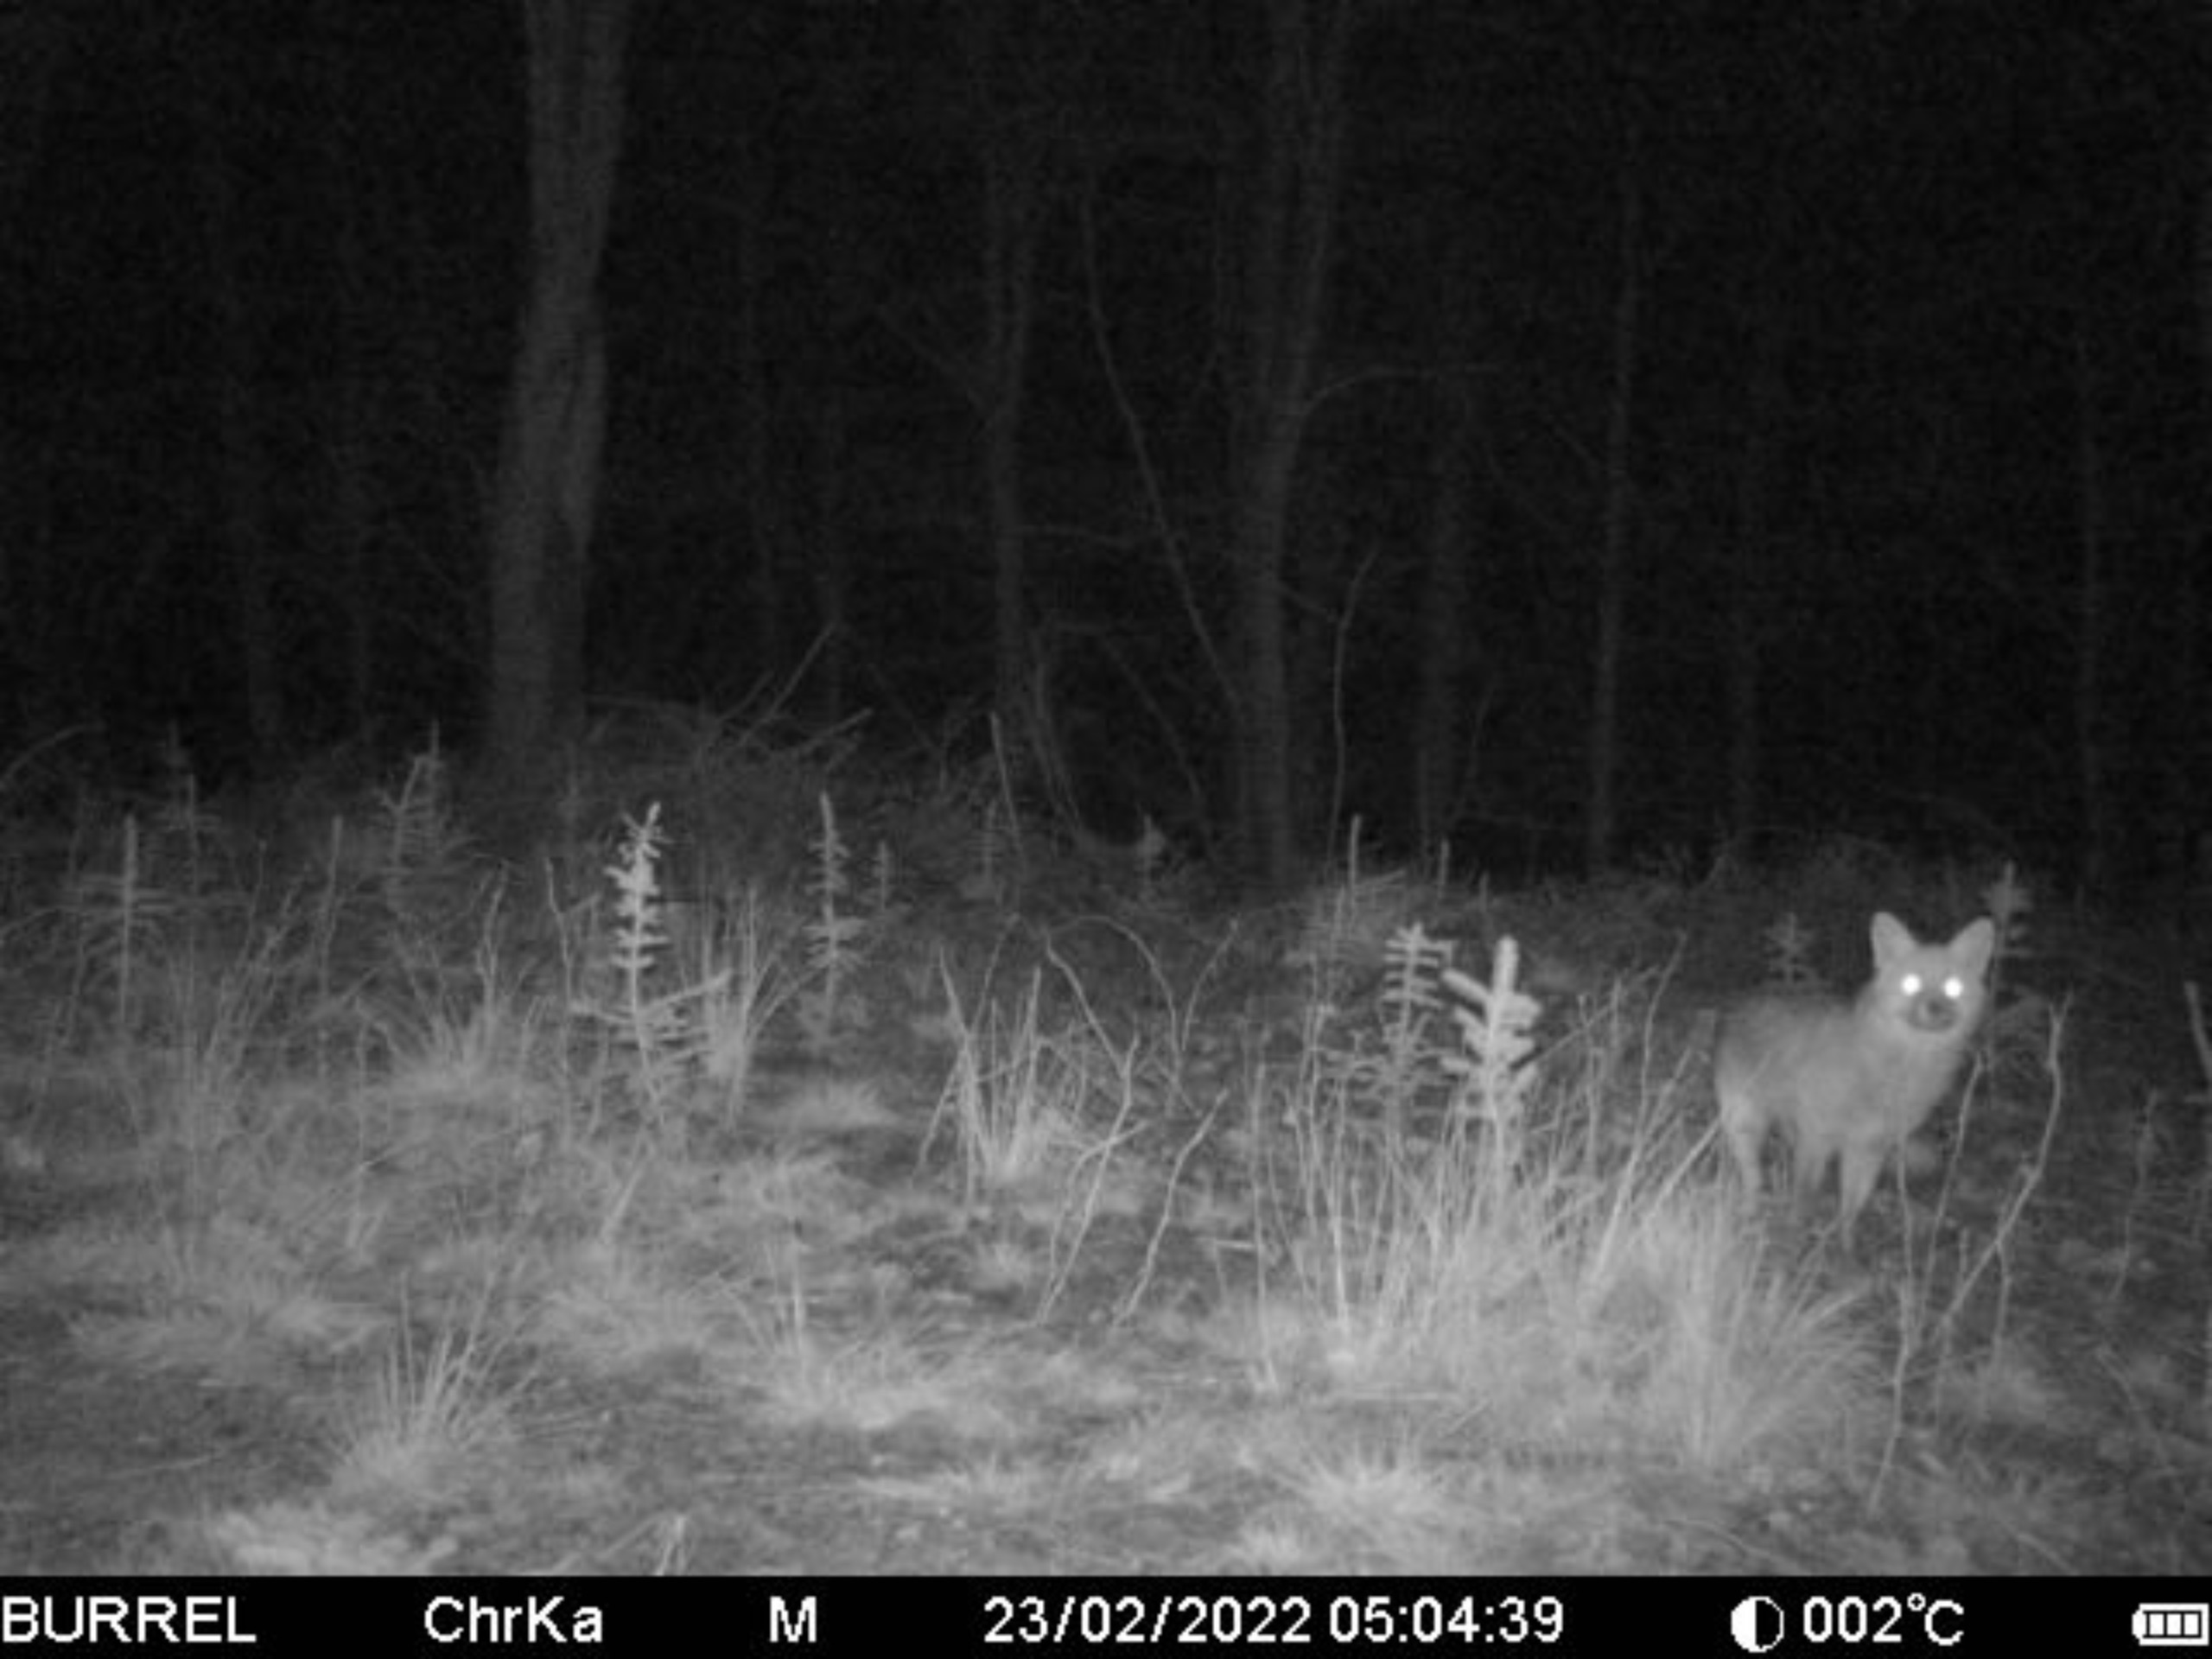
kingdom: Animalia
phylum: Chordata
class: Mammalia
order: Carnivora
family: Canidae
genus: Vulpes
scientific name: Vulpes vulpes
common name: Ræv
